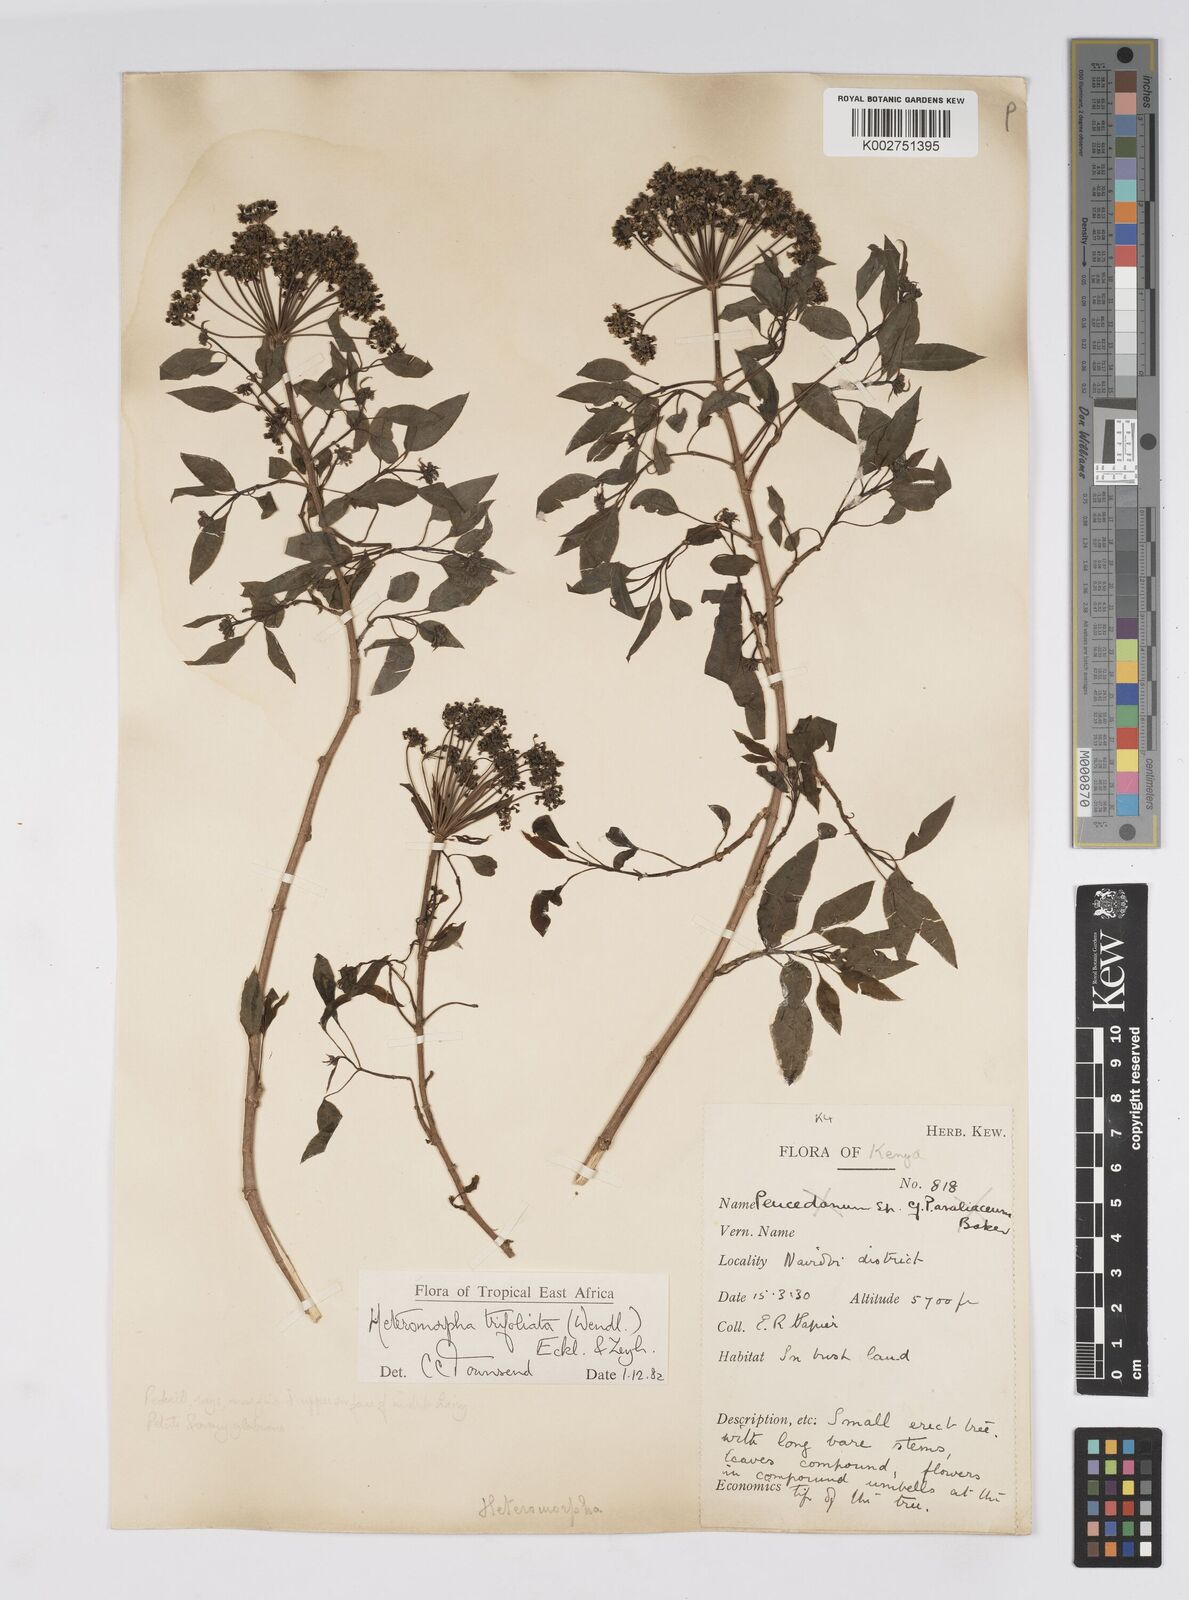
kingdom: Plantae
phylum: Tracheophyta
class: Magnoliopsida
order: Apiales
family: Apiaceae
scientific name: Apiaceae
